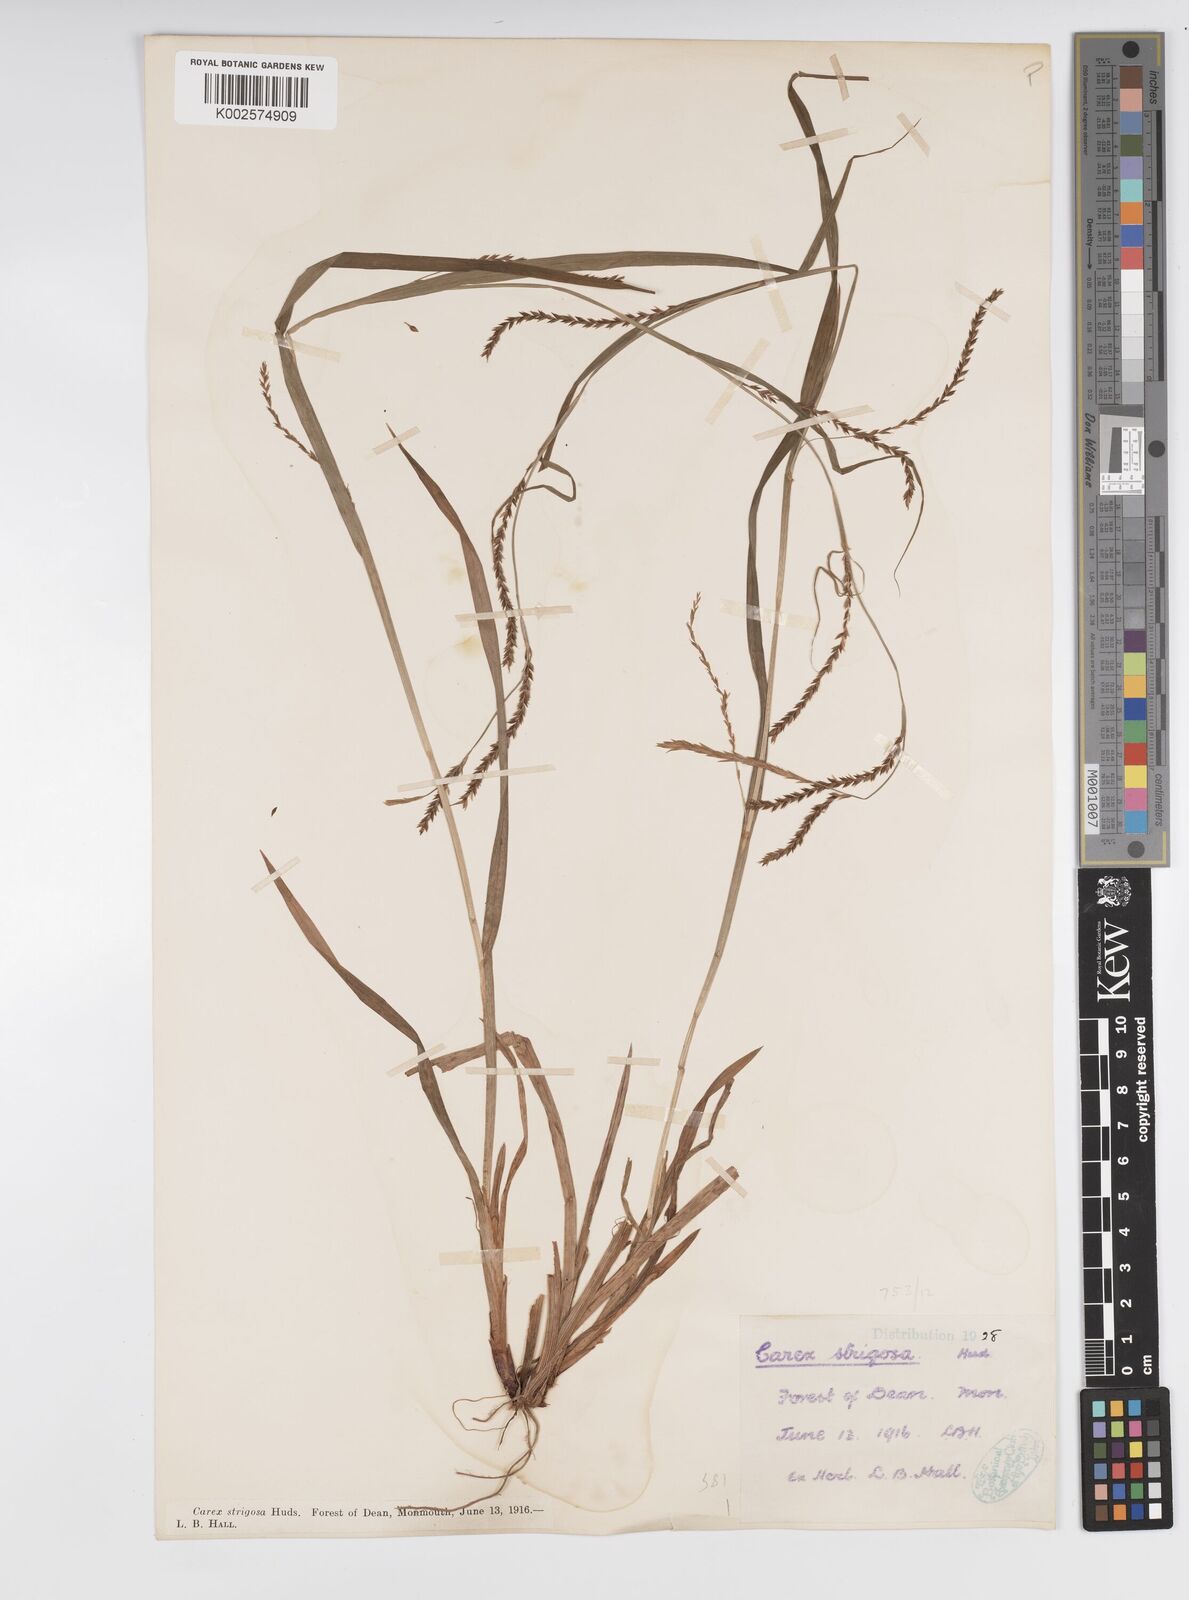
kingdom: Plantae
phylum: Tracheophyta
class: Liliopsida
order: Poales
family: Cyperaceae
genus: Carex
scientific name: Carex strigosa
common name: Thin-spiked wood-sedge
